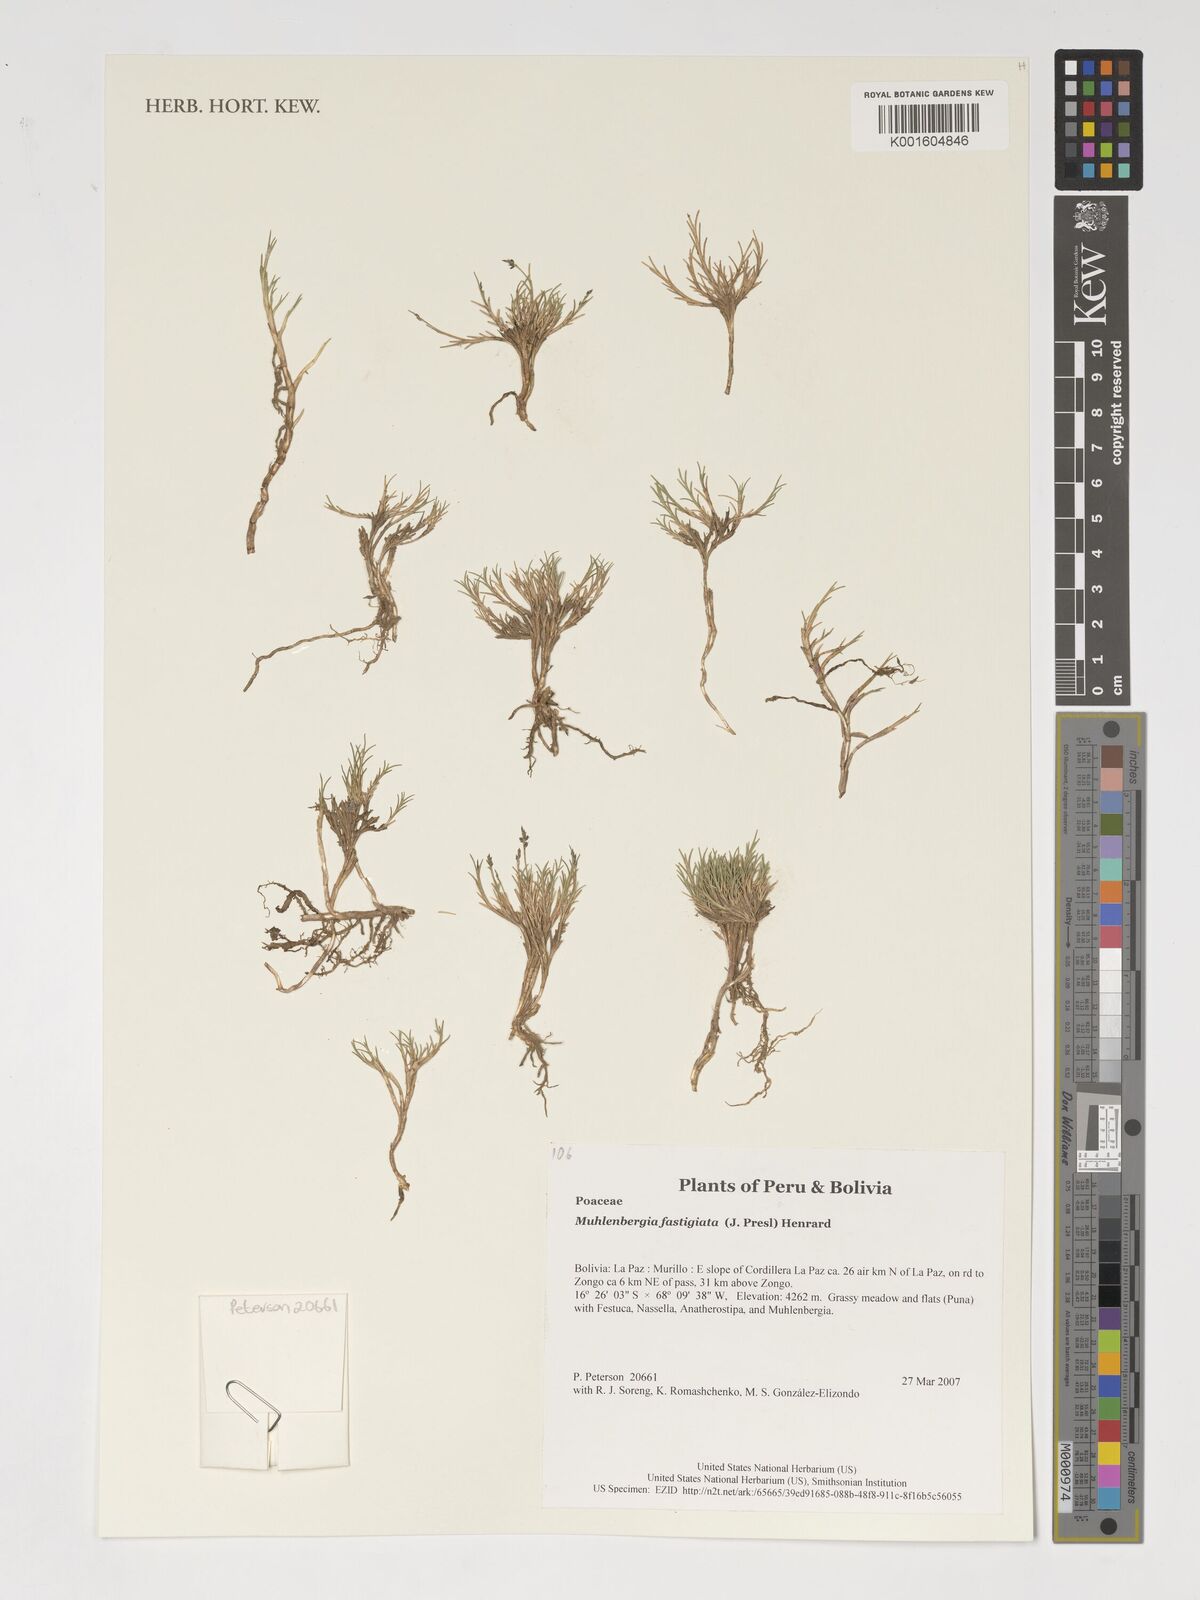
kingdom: Plantae
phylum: Tracheophyta
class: Liliopsida
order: Poales
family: Poaceae
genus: Muhlenbergia
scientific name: Muhlenbergia fastigiata
